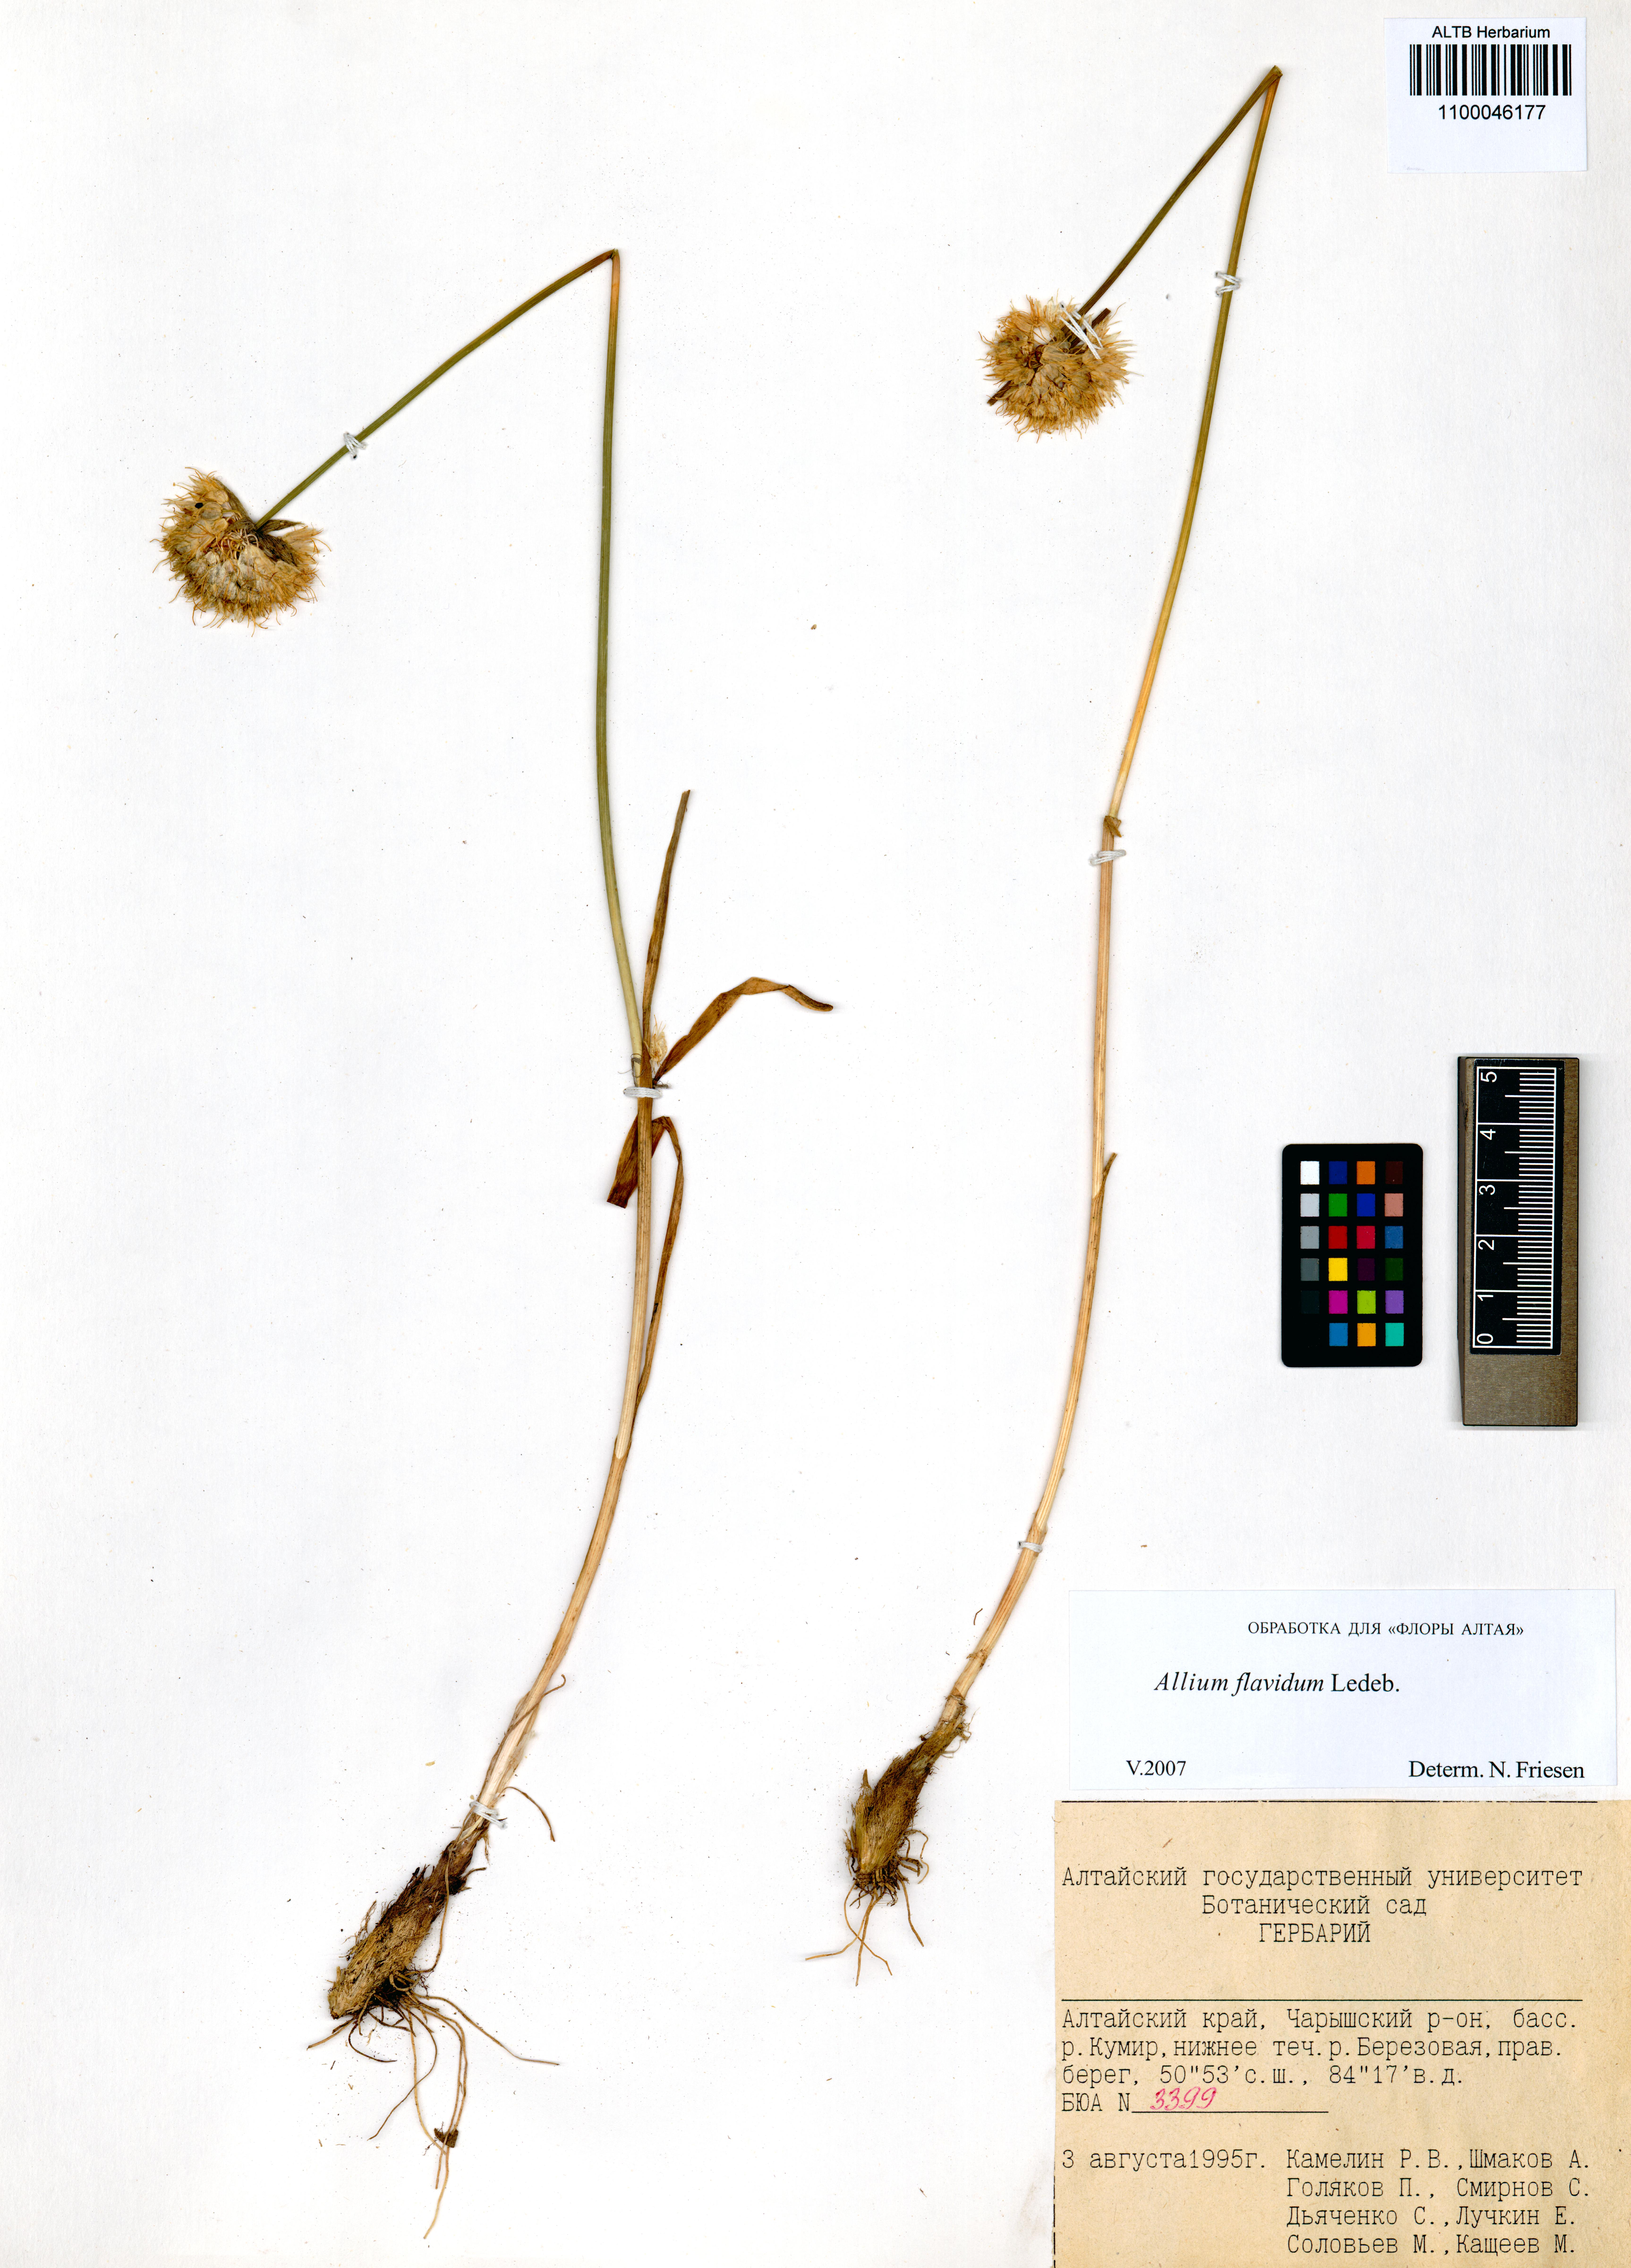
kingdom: Plantae
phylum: Tracheophyta
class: Liliopsida
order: Asparagales
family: Amaryllidaceae
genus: Allium
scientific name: Allium flavidum
